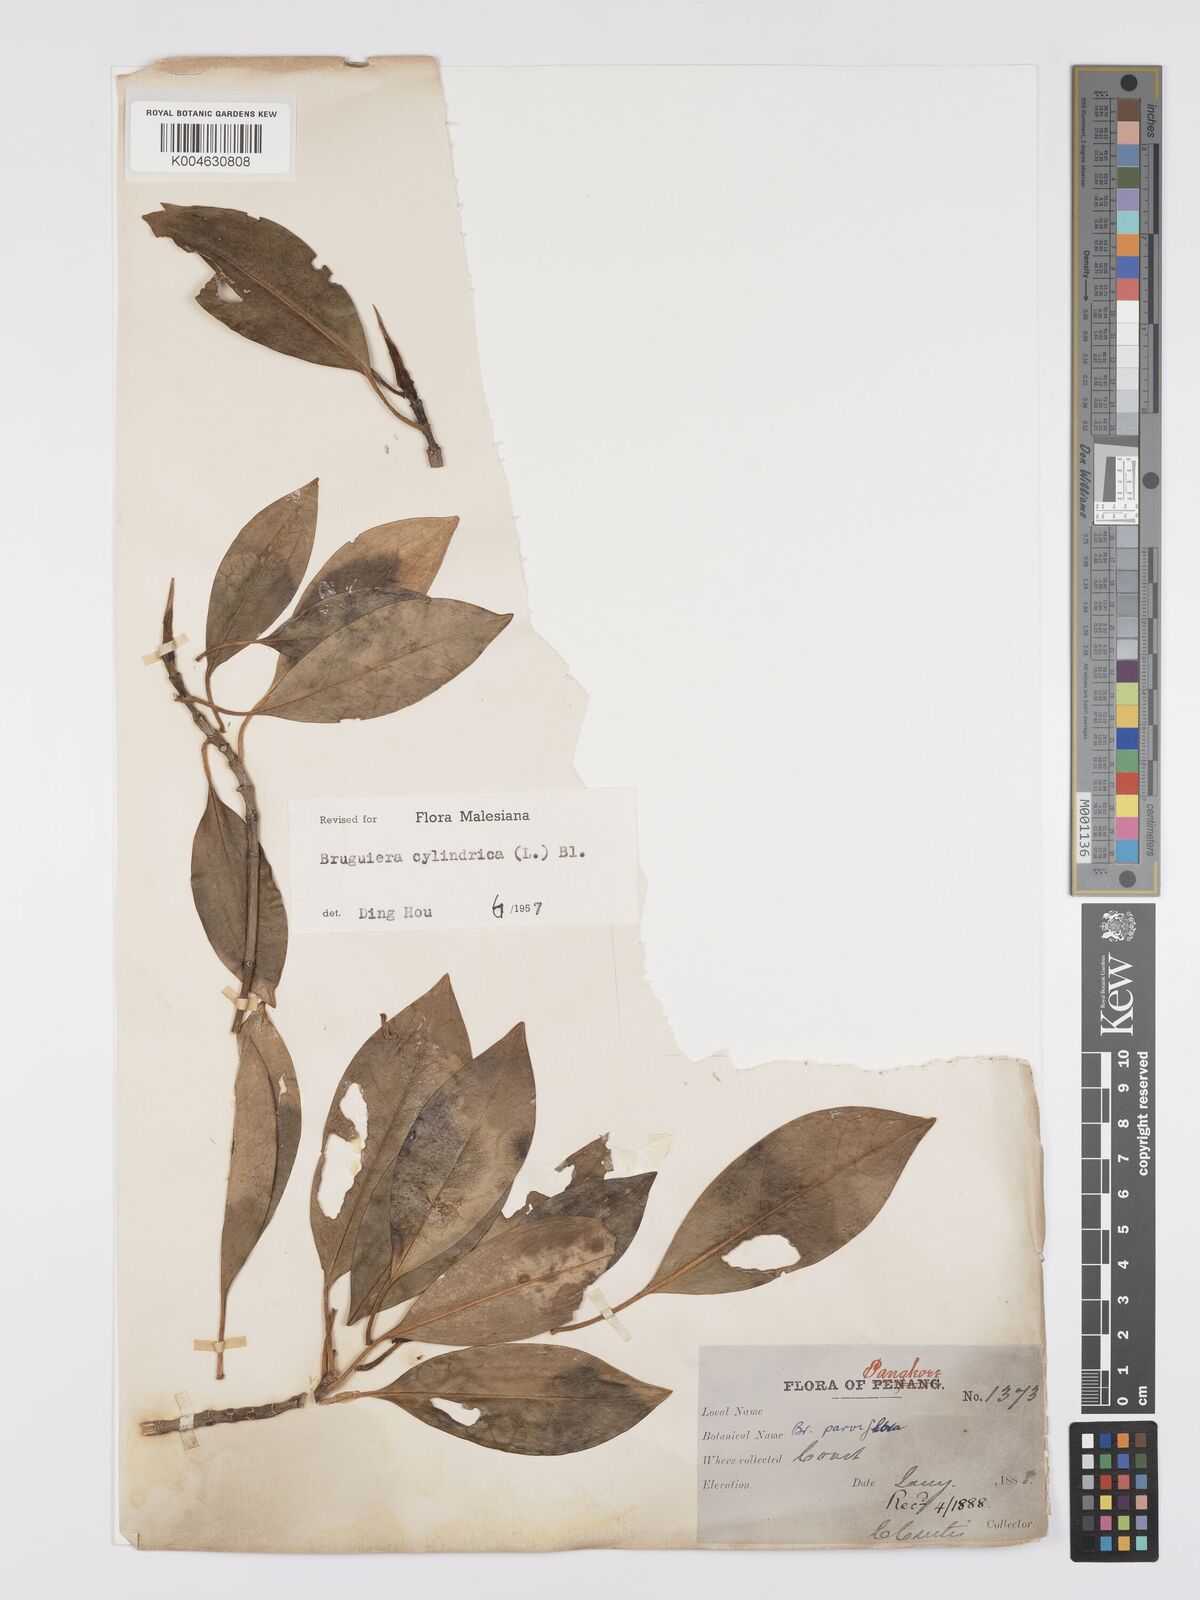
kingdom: Plantae
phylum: Tracheophyta
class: Magnoliopsida
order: Malpighiales
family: Rhizophoraceae
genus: Bruguiera
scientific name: Bruguiera cylindrica
